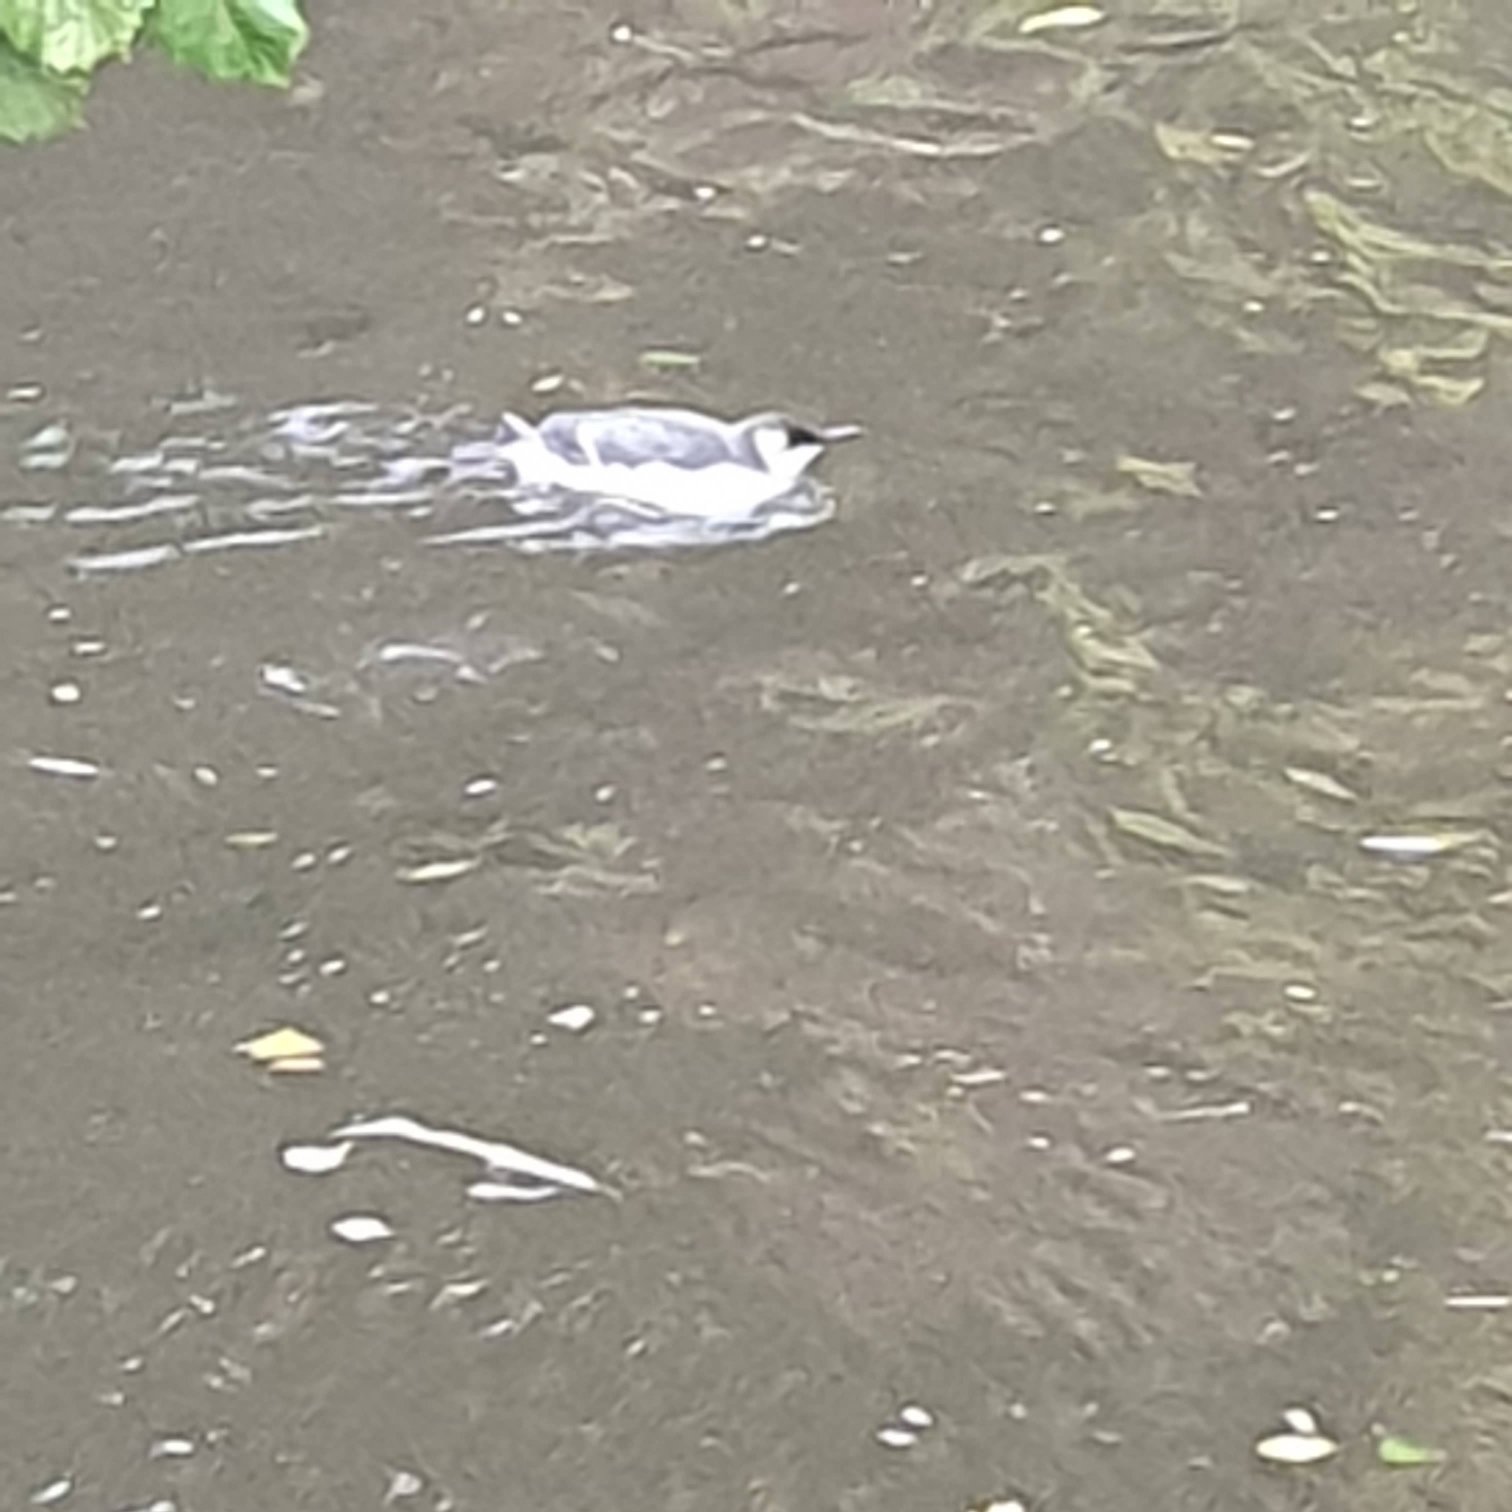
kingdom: Animalia
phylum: Chordata
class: Aves
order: Charadriiformes
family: Alcidae
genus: Uria
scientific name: Uria aalge
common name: Lomvie
